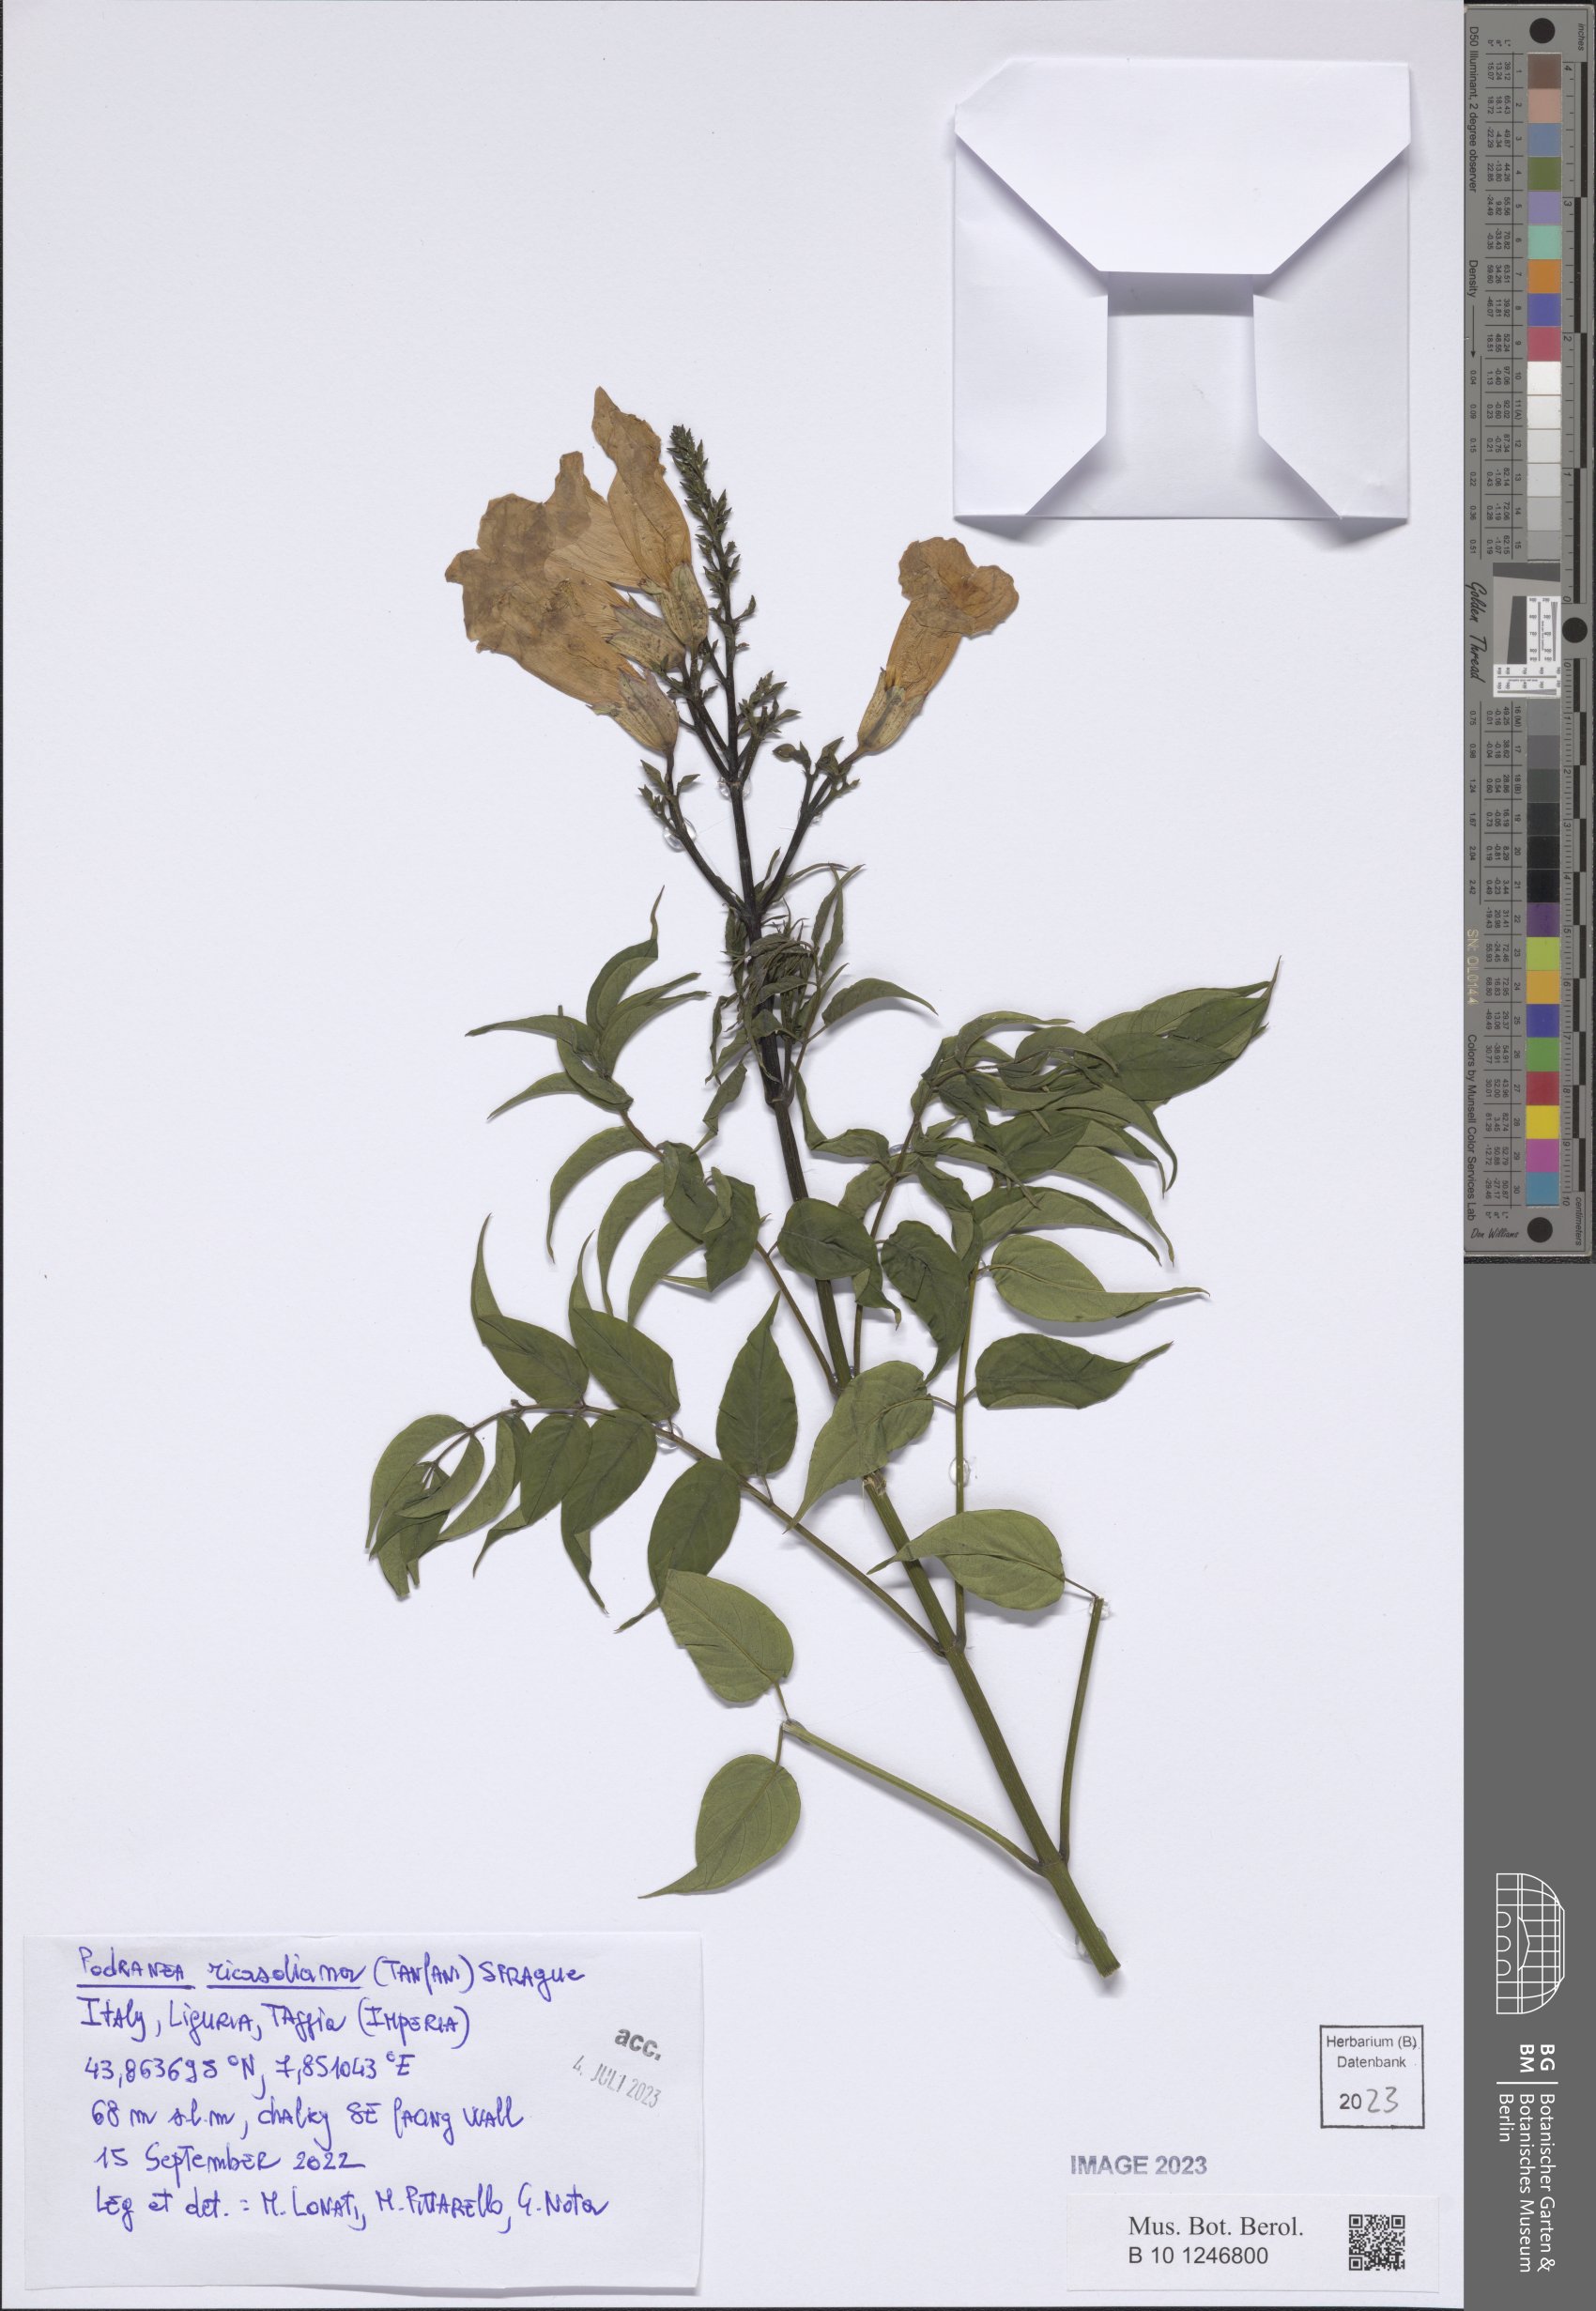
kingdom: Plantae
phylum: Tracheophyta
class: Magnoliopsida
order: Lamiales
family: Bignoniaceae
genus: Podranea
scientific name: Podranea ricasoliana
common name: Zimbabwe creeper
